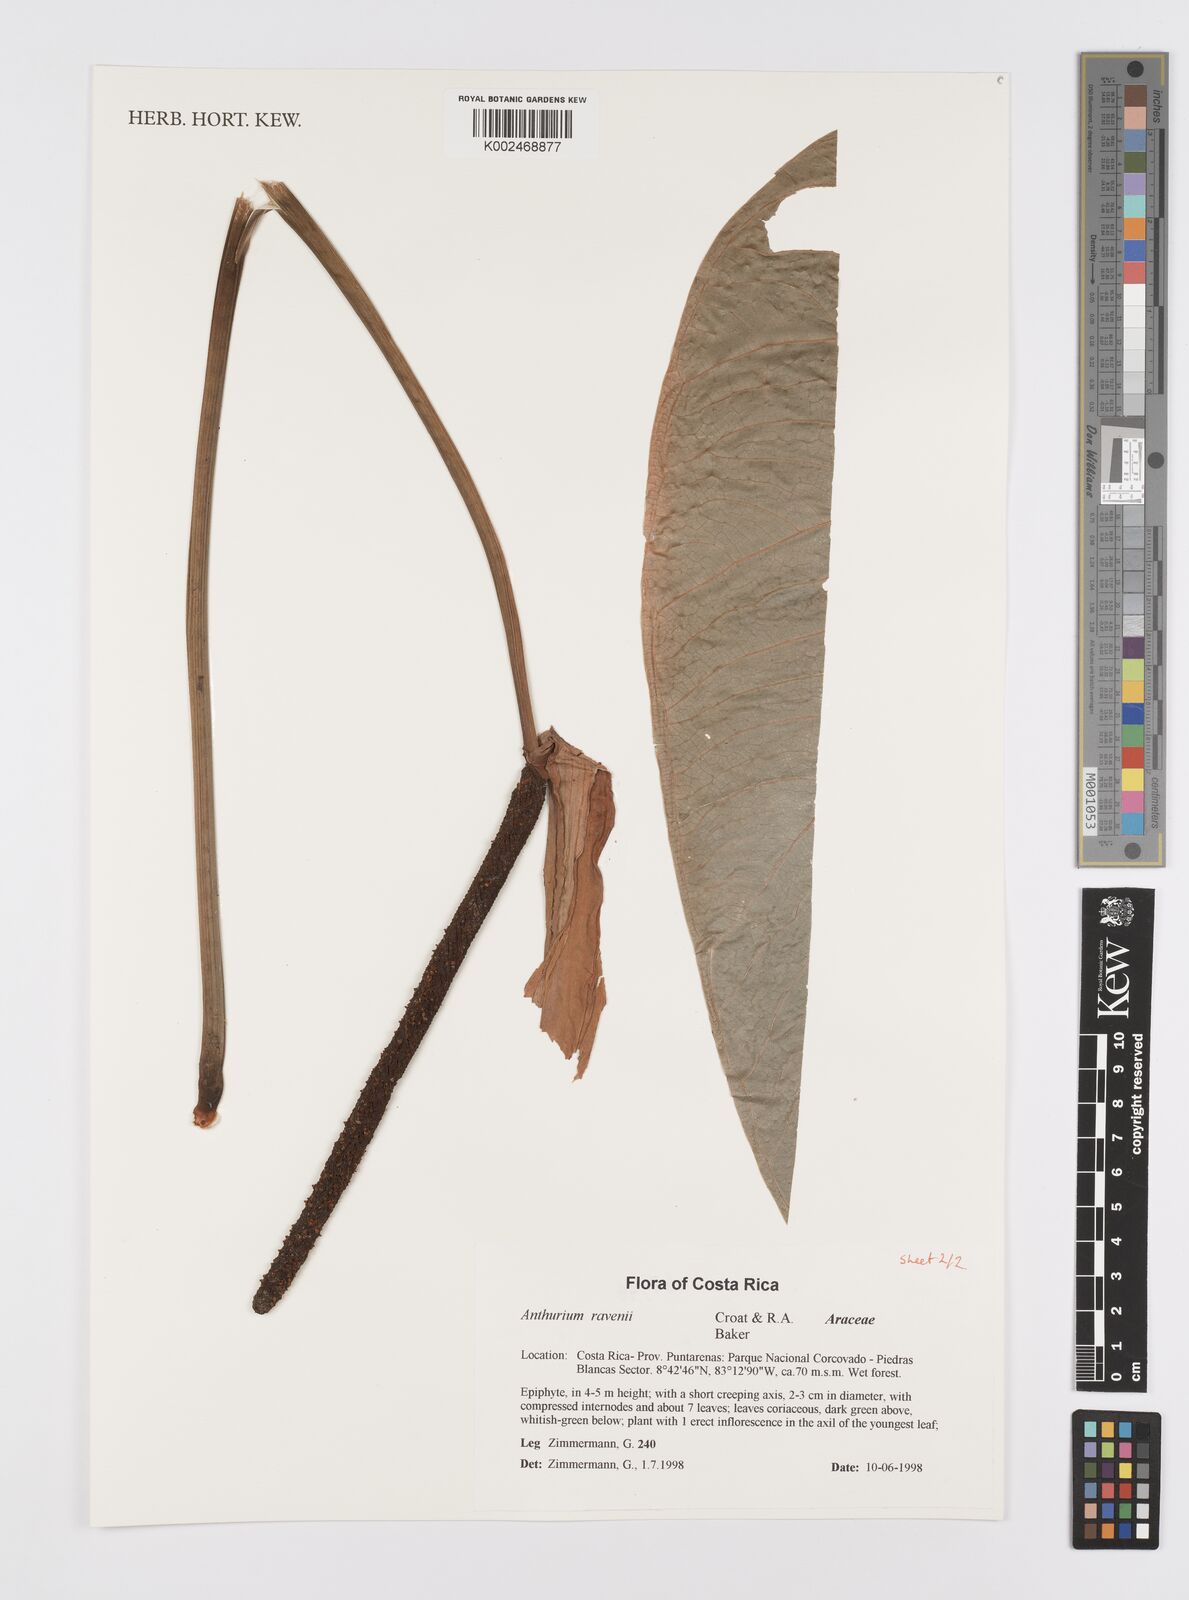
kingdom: Plantae
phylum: Tracheophyta
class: Liliopsida
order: Alismatales
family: Araceae
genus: Anthurium
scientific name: Anthurium ravenii
